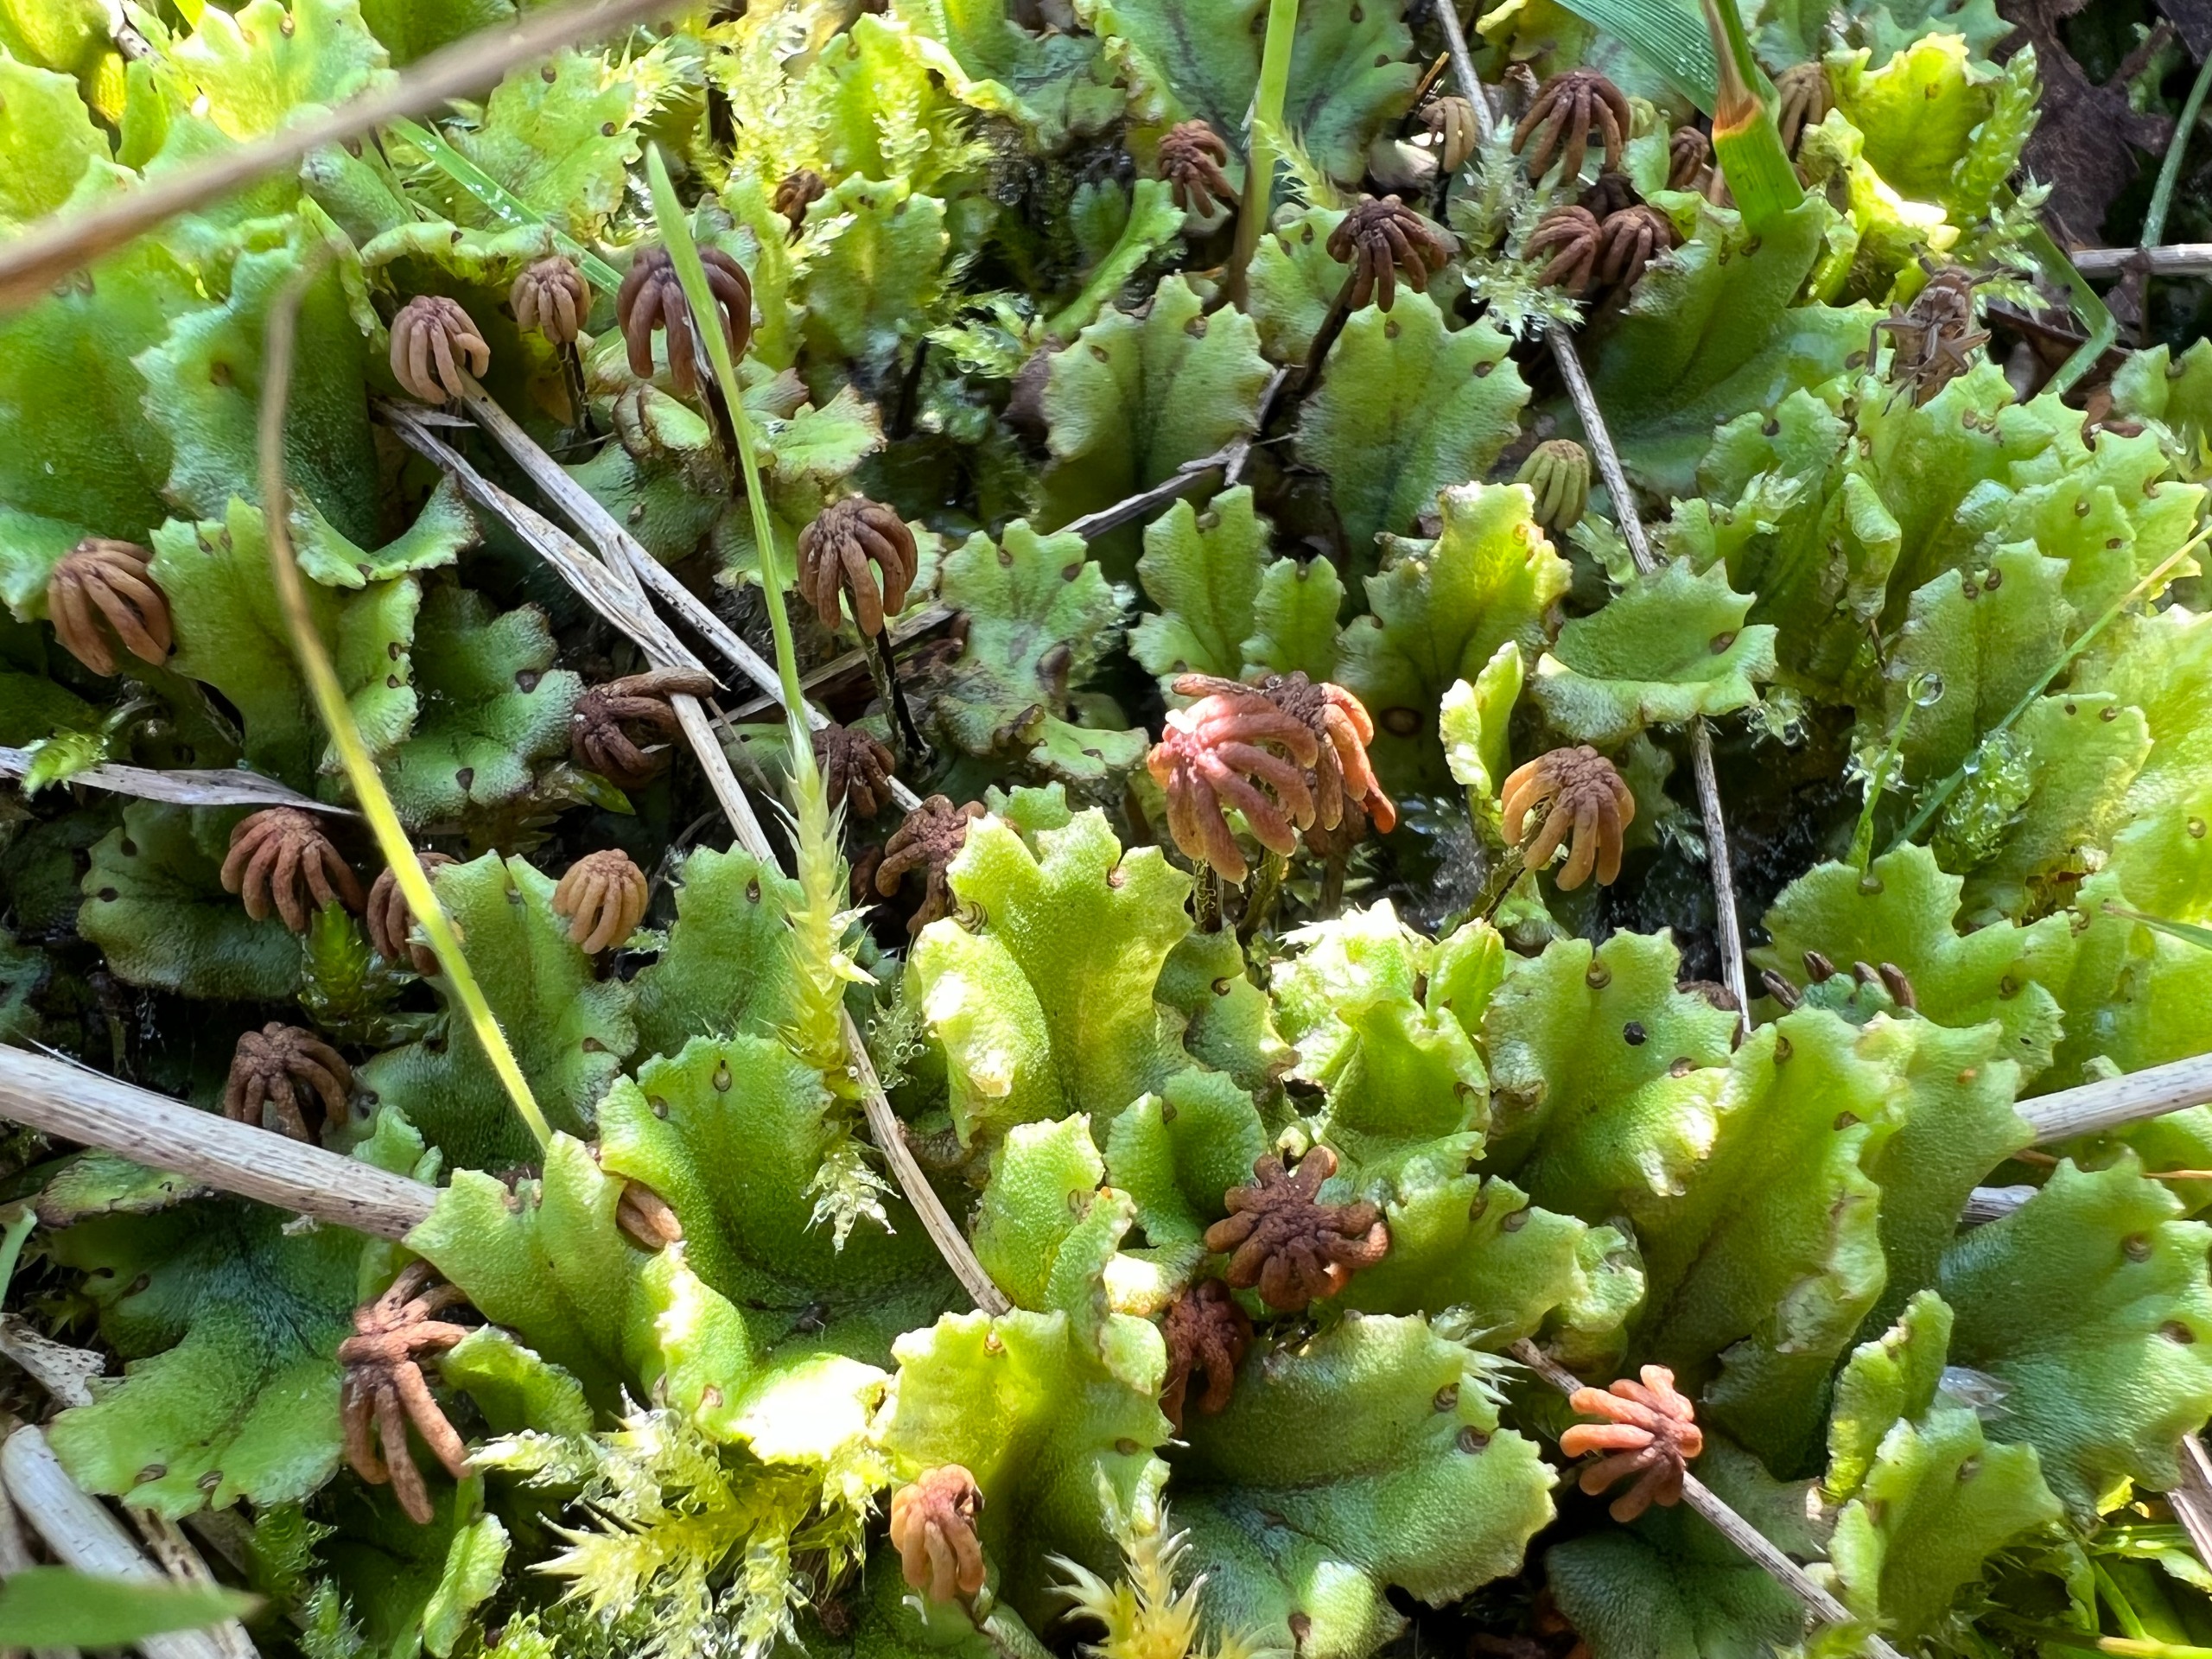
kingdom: Plantae
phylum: Marchantiophyta
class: Marchantiopsida
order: Marchantiales
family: Marchantiaceae
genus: Marchantia
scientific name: Marchantia polymorpha
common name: Mose-lungemos
